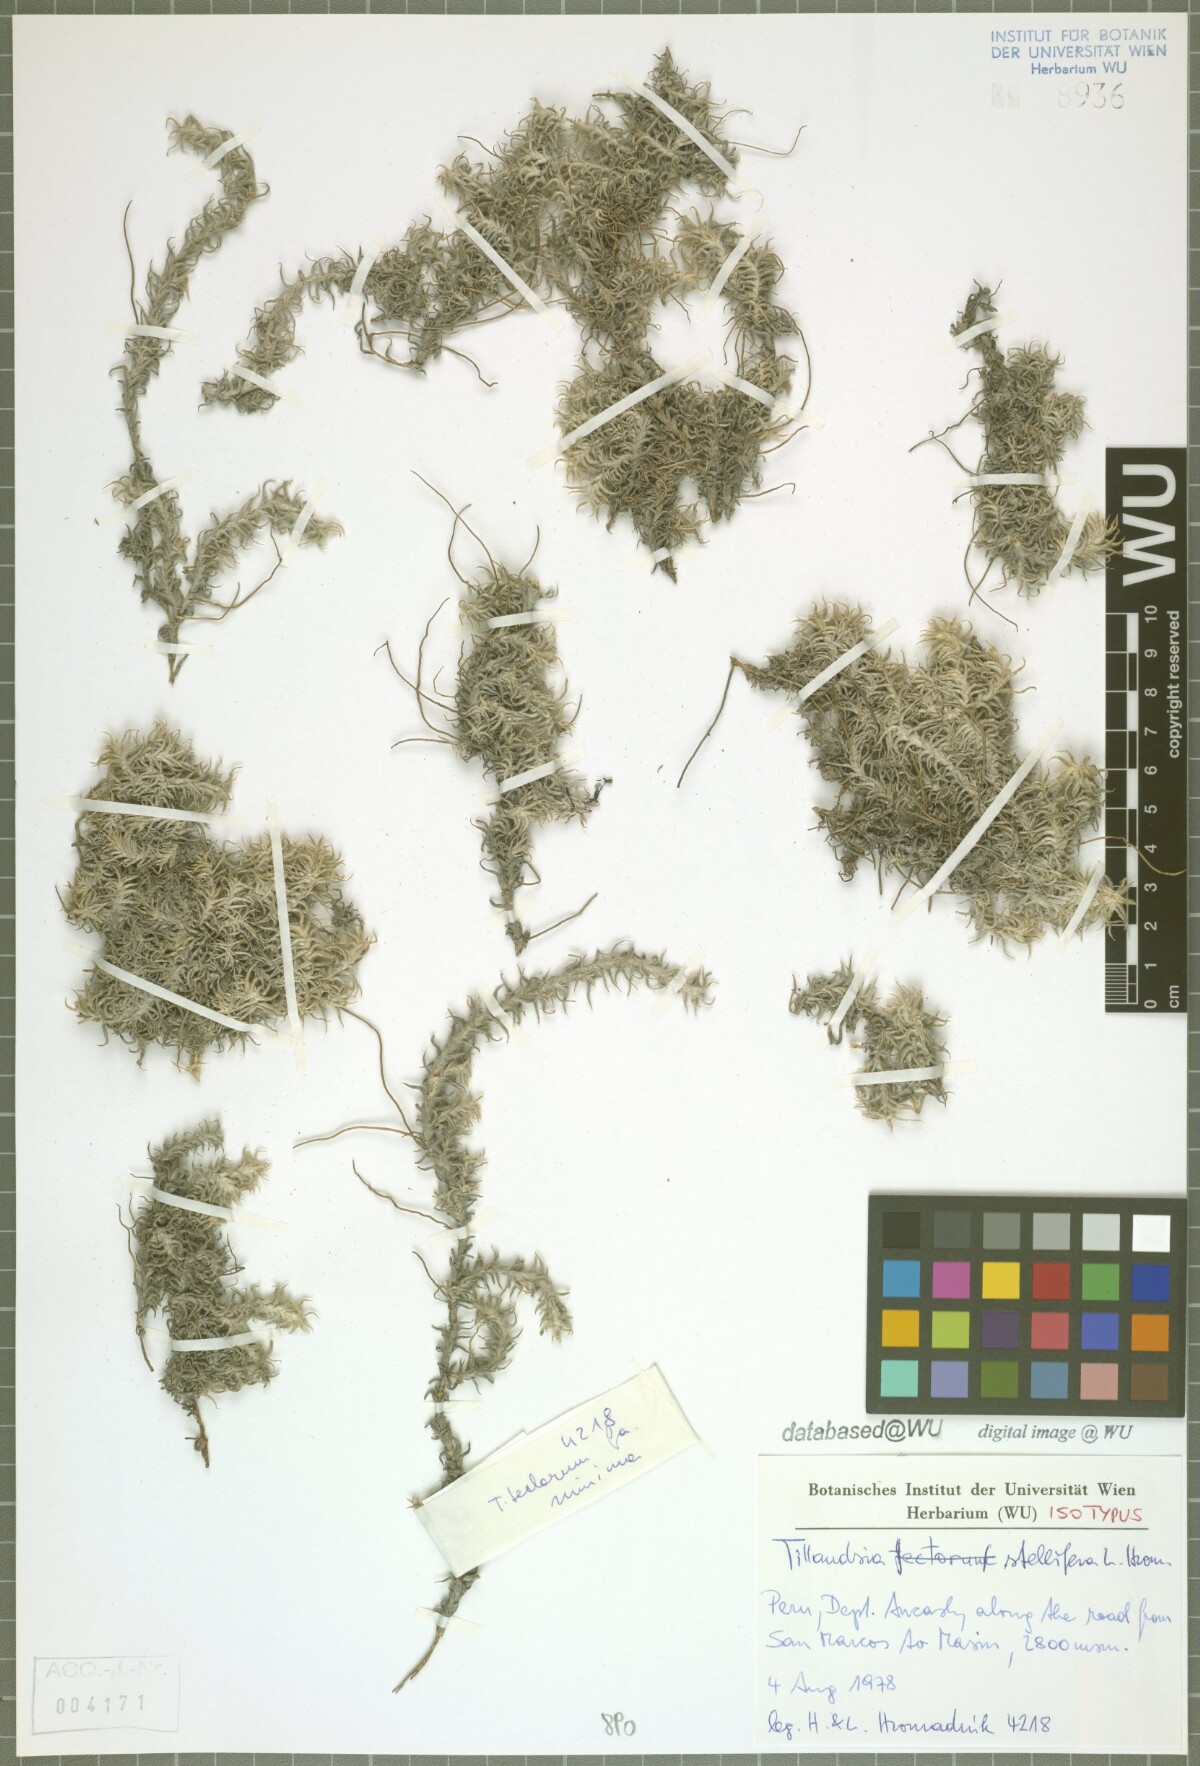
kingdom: Plantae
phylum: Tracheophyta
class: Liliopsida
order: Poales
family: Bromeliaceae
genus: Tillandsia
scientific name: Tillandsia stellifera
